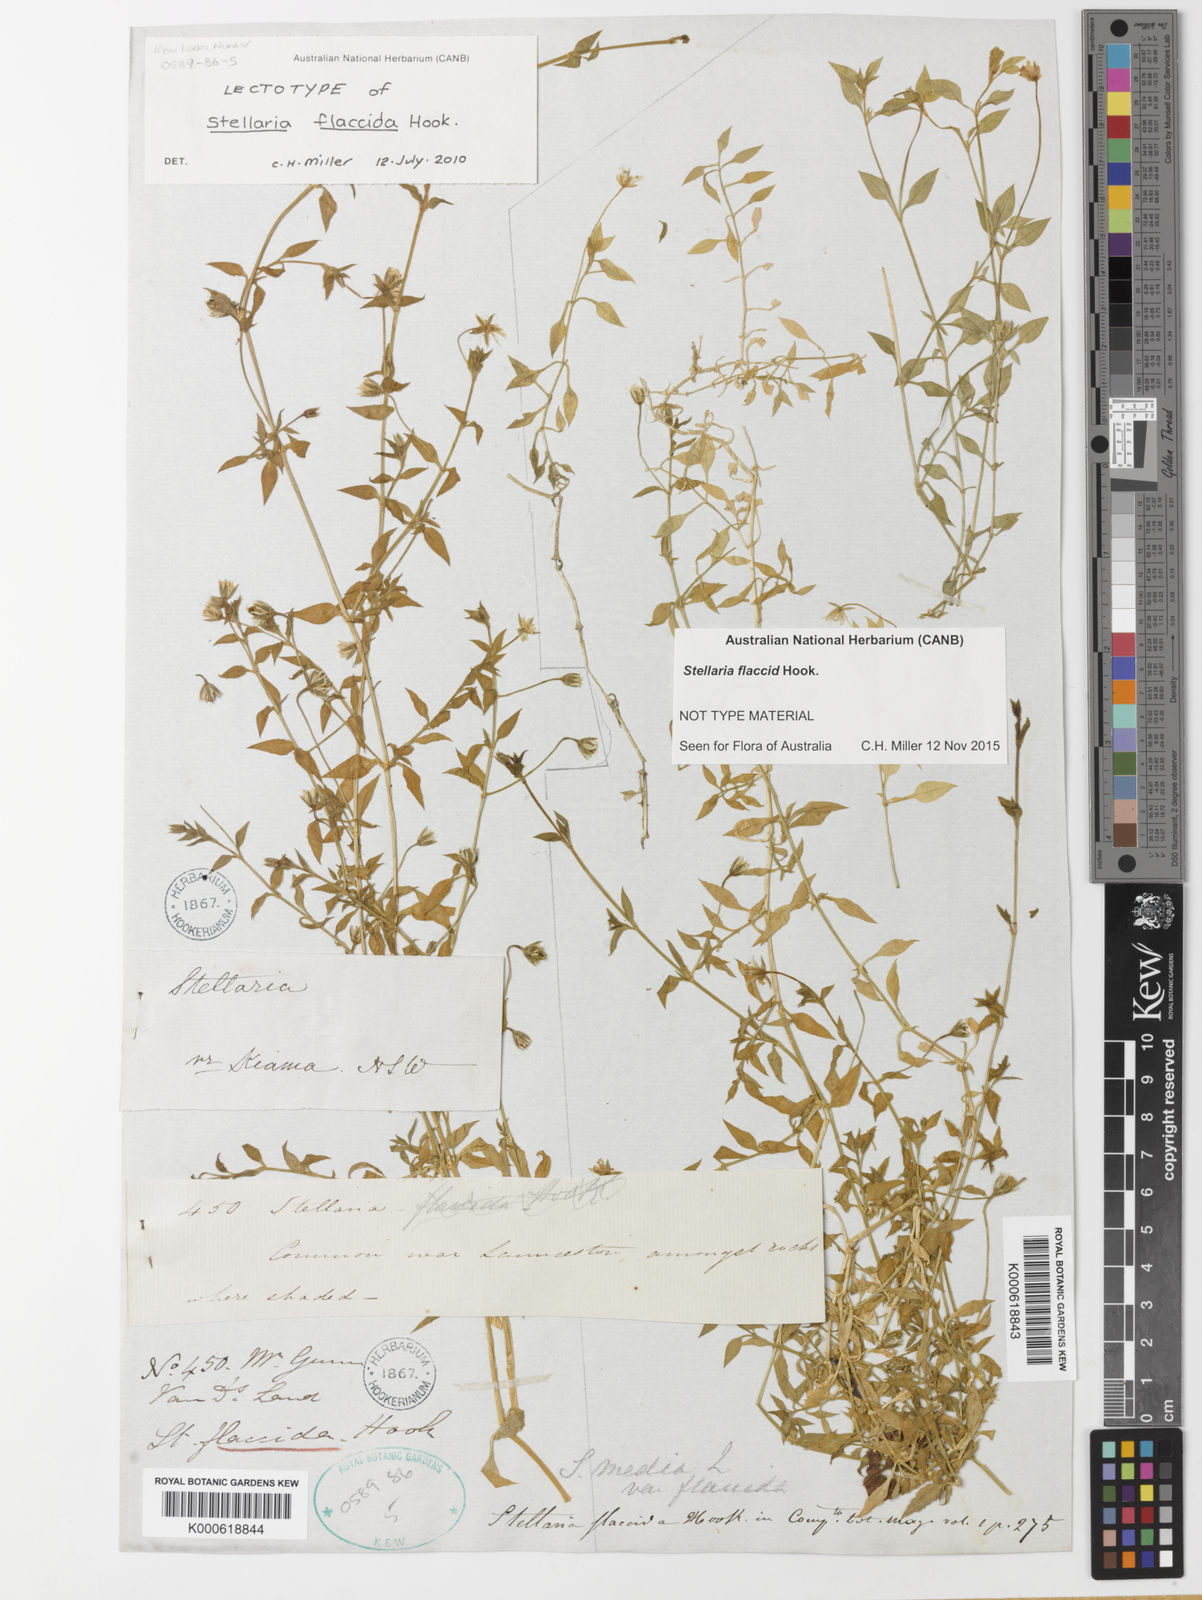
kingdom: Plantae
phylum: Tracheophyta
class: Magnoliopsida
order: Caryophyllales
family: Caryophyllaceae
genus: Stellaria
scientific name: Stellaria flaccida
